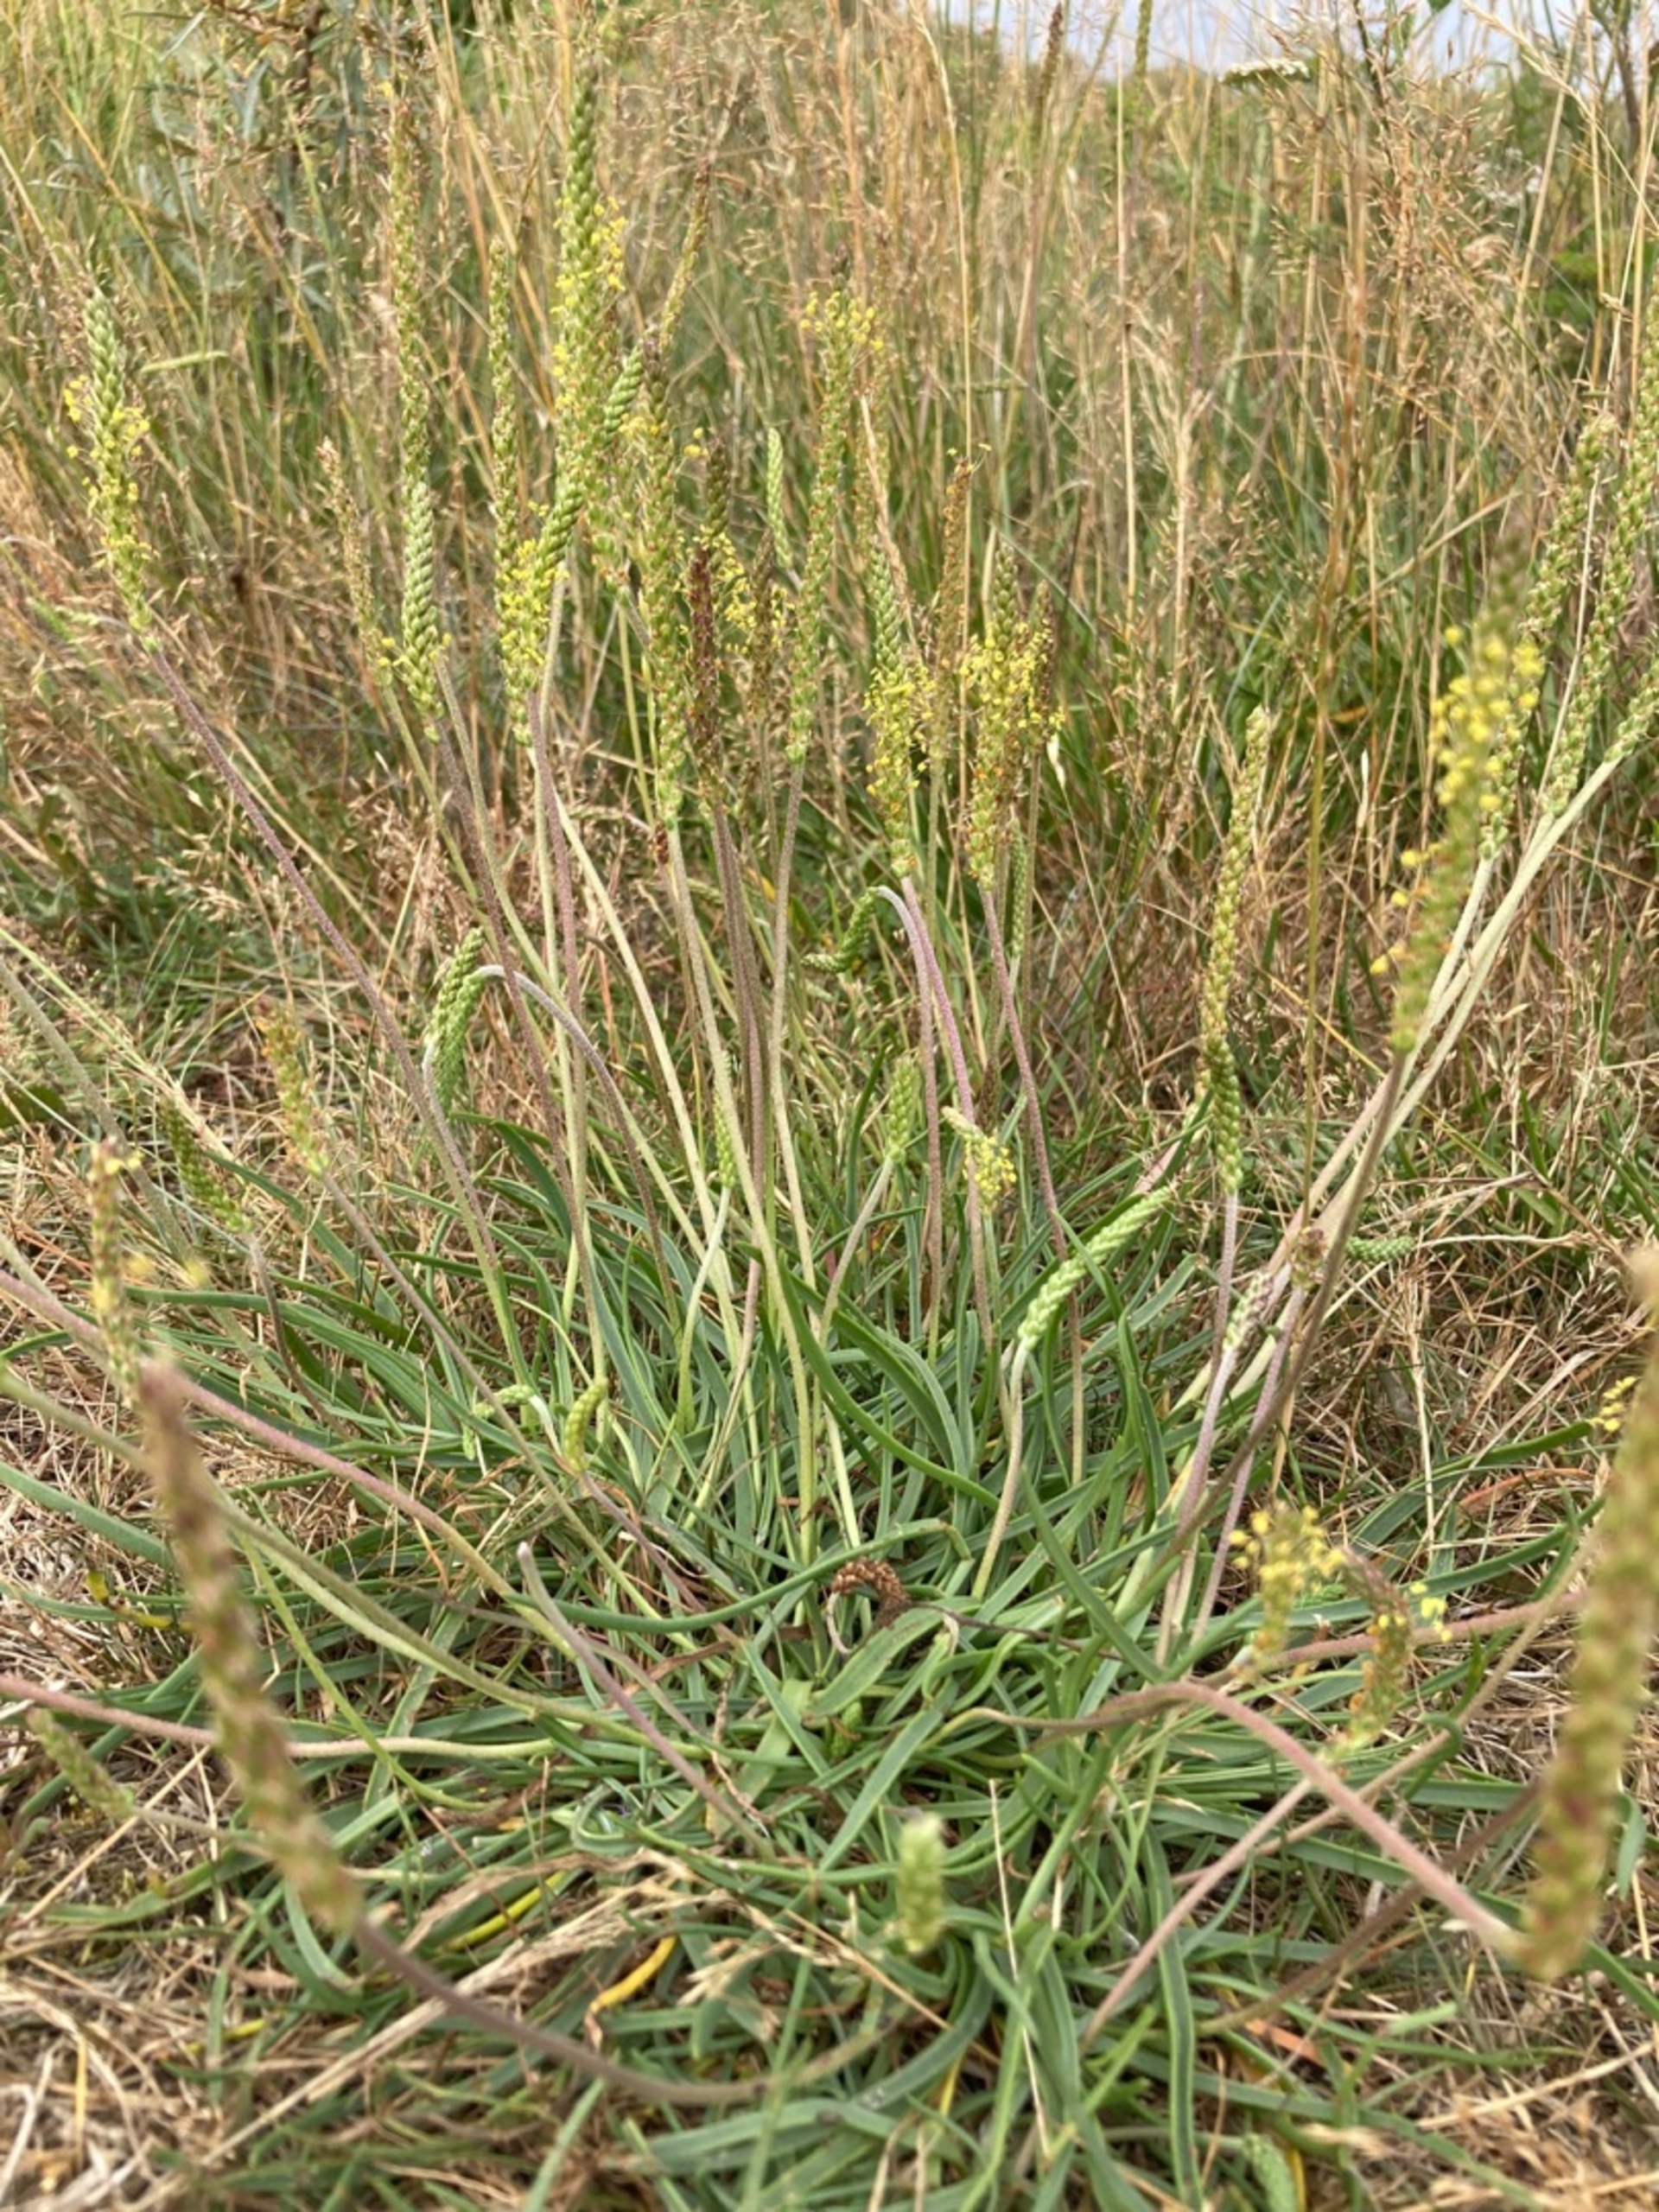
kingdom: Plantae
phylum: Tracheophyta
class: Magnoliopsida
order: Lamiales
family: Plantaginaceae
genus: Plantago
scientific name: Plantago maritima
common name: Strand-vejbred
